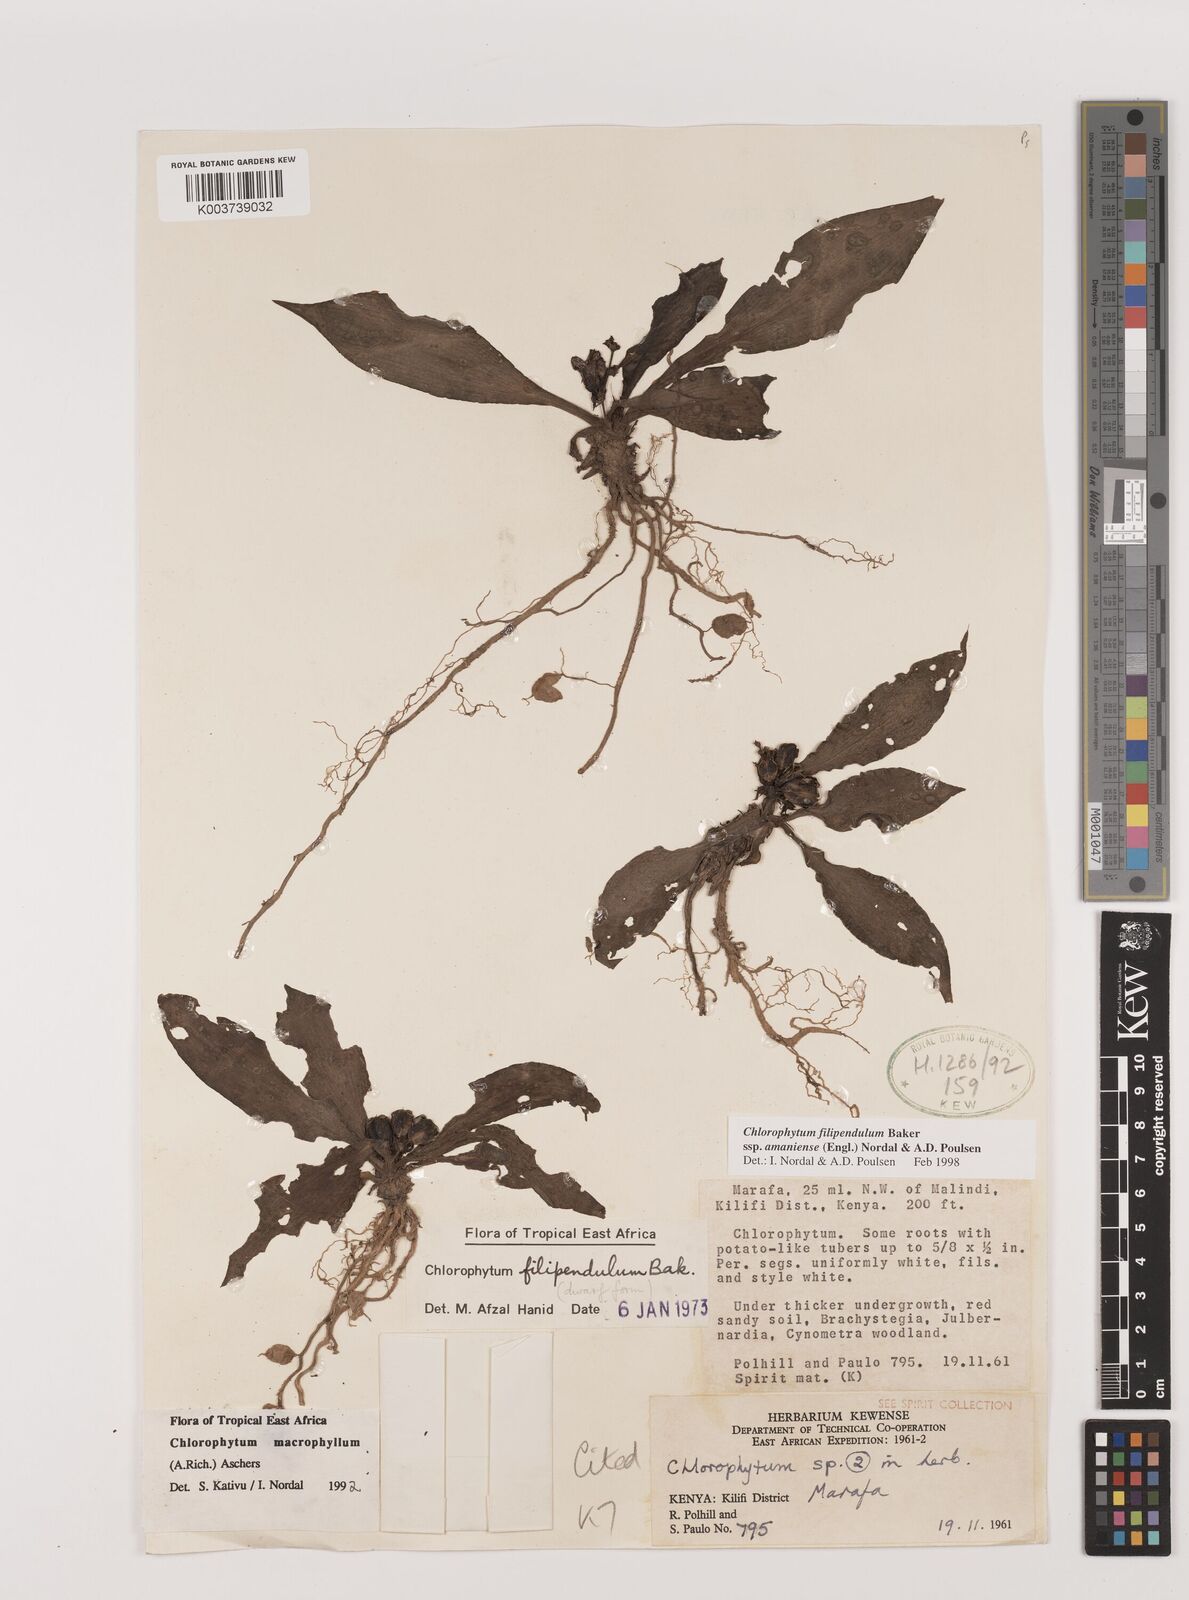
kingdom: Plantae
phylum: Tracheophyta
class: Liliopsida
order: Asparagales
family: Asparagaceae
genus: Chlorophytum
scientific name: Chlorophytum filipendulum
